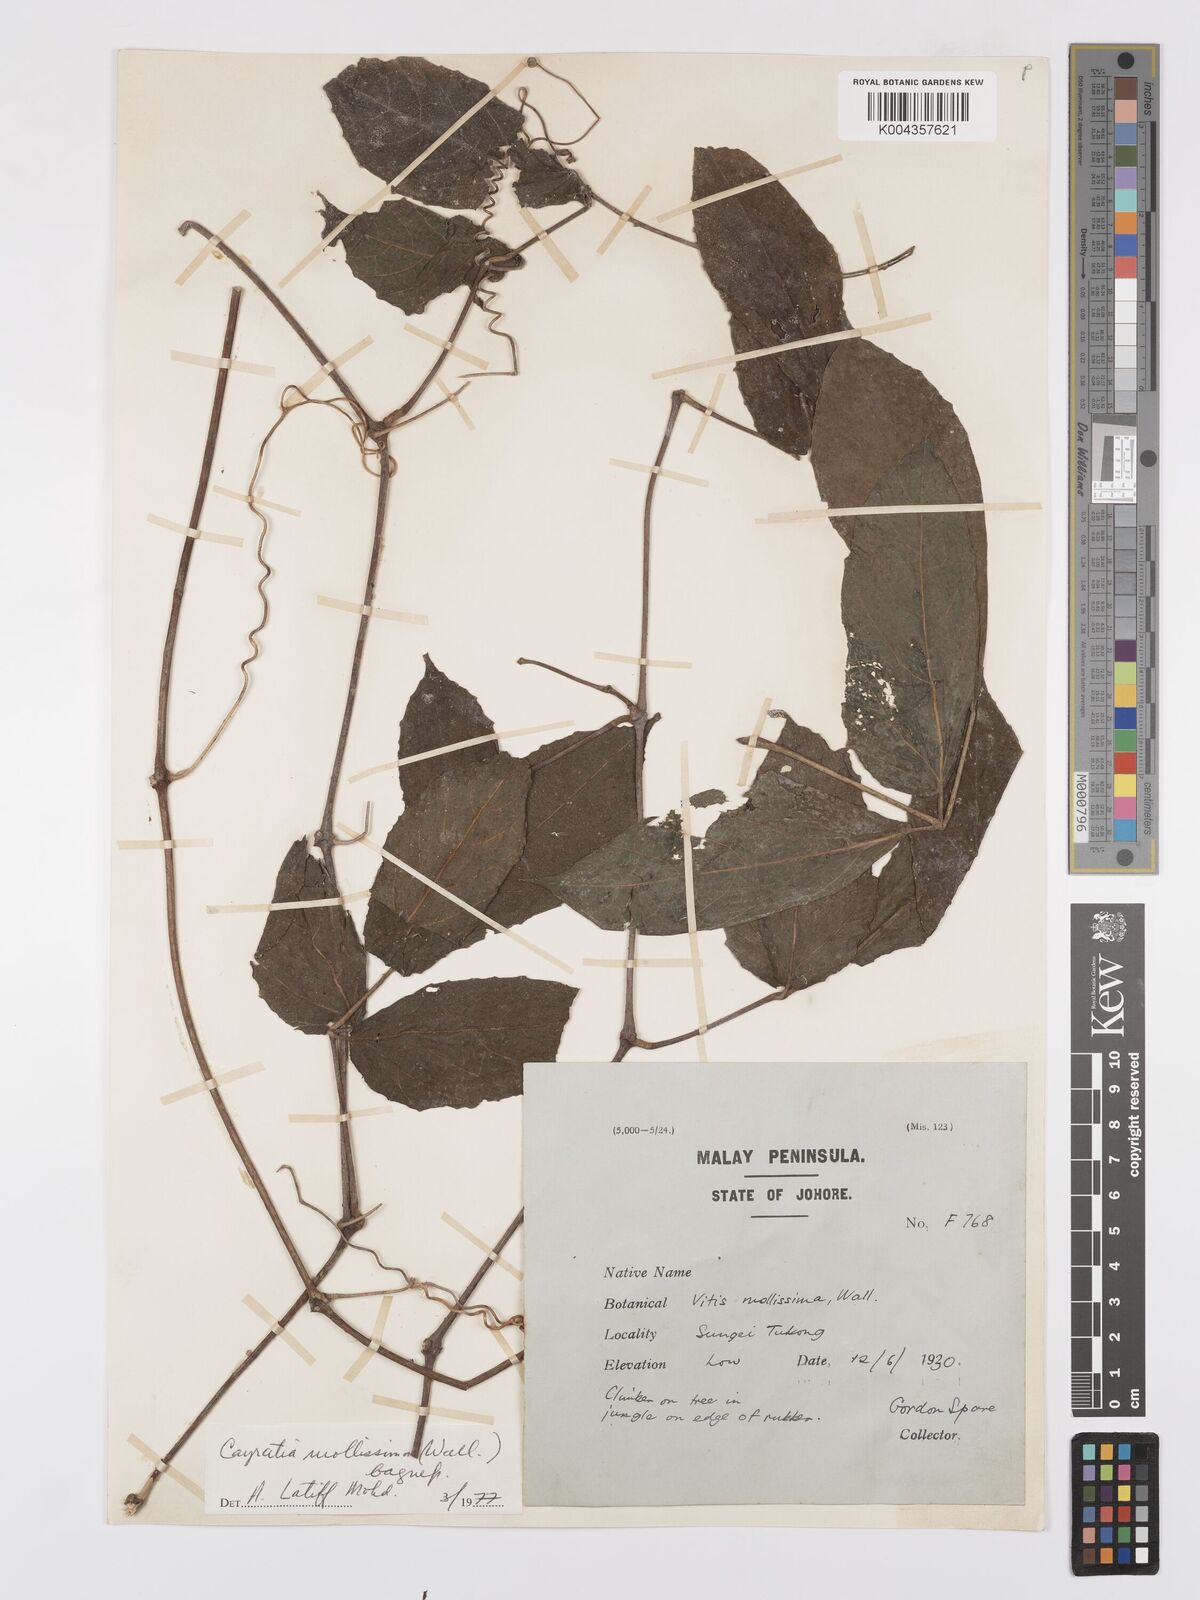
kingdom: Plantae
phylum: Tracheophyta
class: Magnoliopsida
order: Vitales
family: Vitaceae
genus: Cayratia
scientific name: Cayratia mollissima
